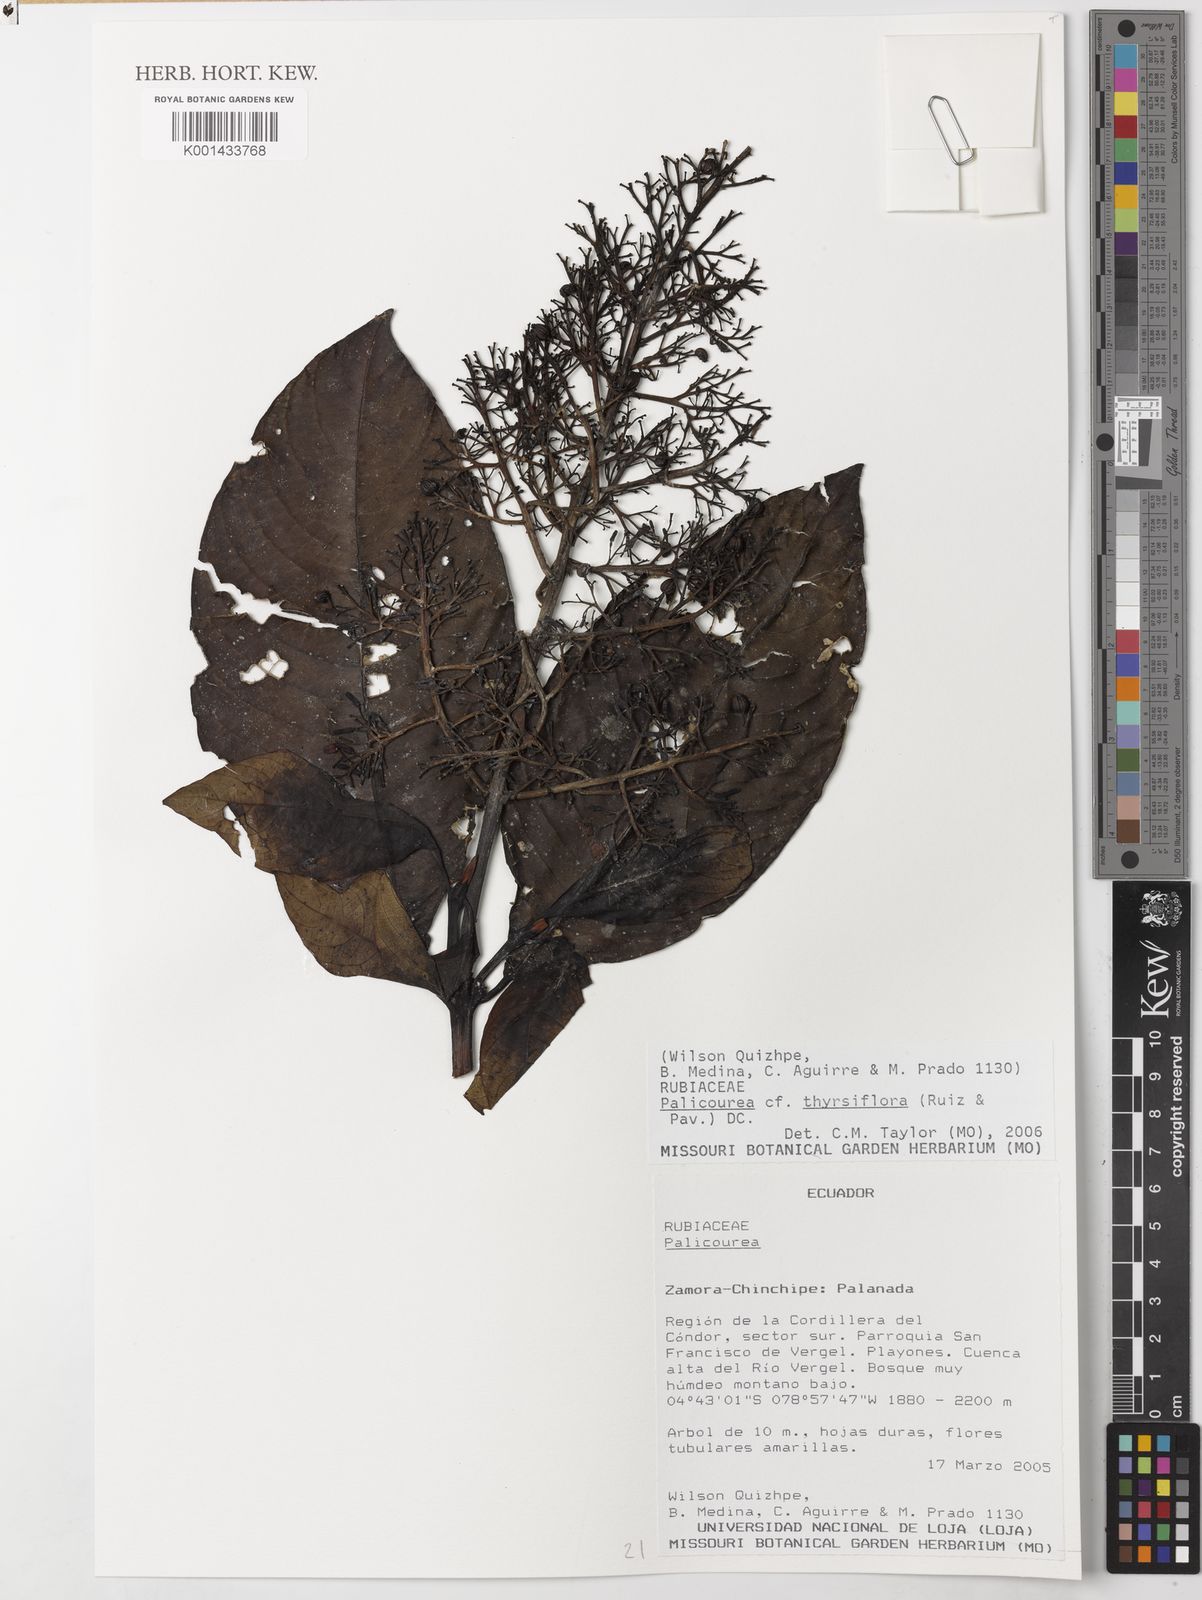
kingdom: Plantae
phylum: Tracheophyta
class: Magnoliopsida
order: Gentianales
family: Rubiaceae
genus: Palicourea
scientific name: Palicourea thyrsiflora
